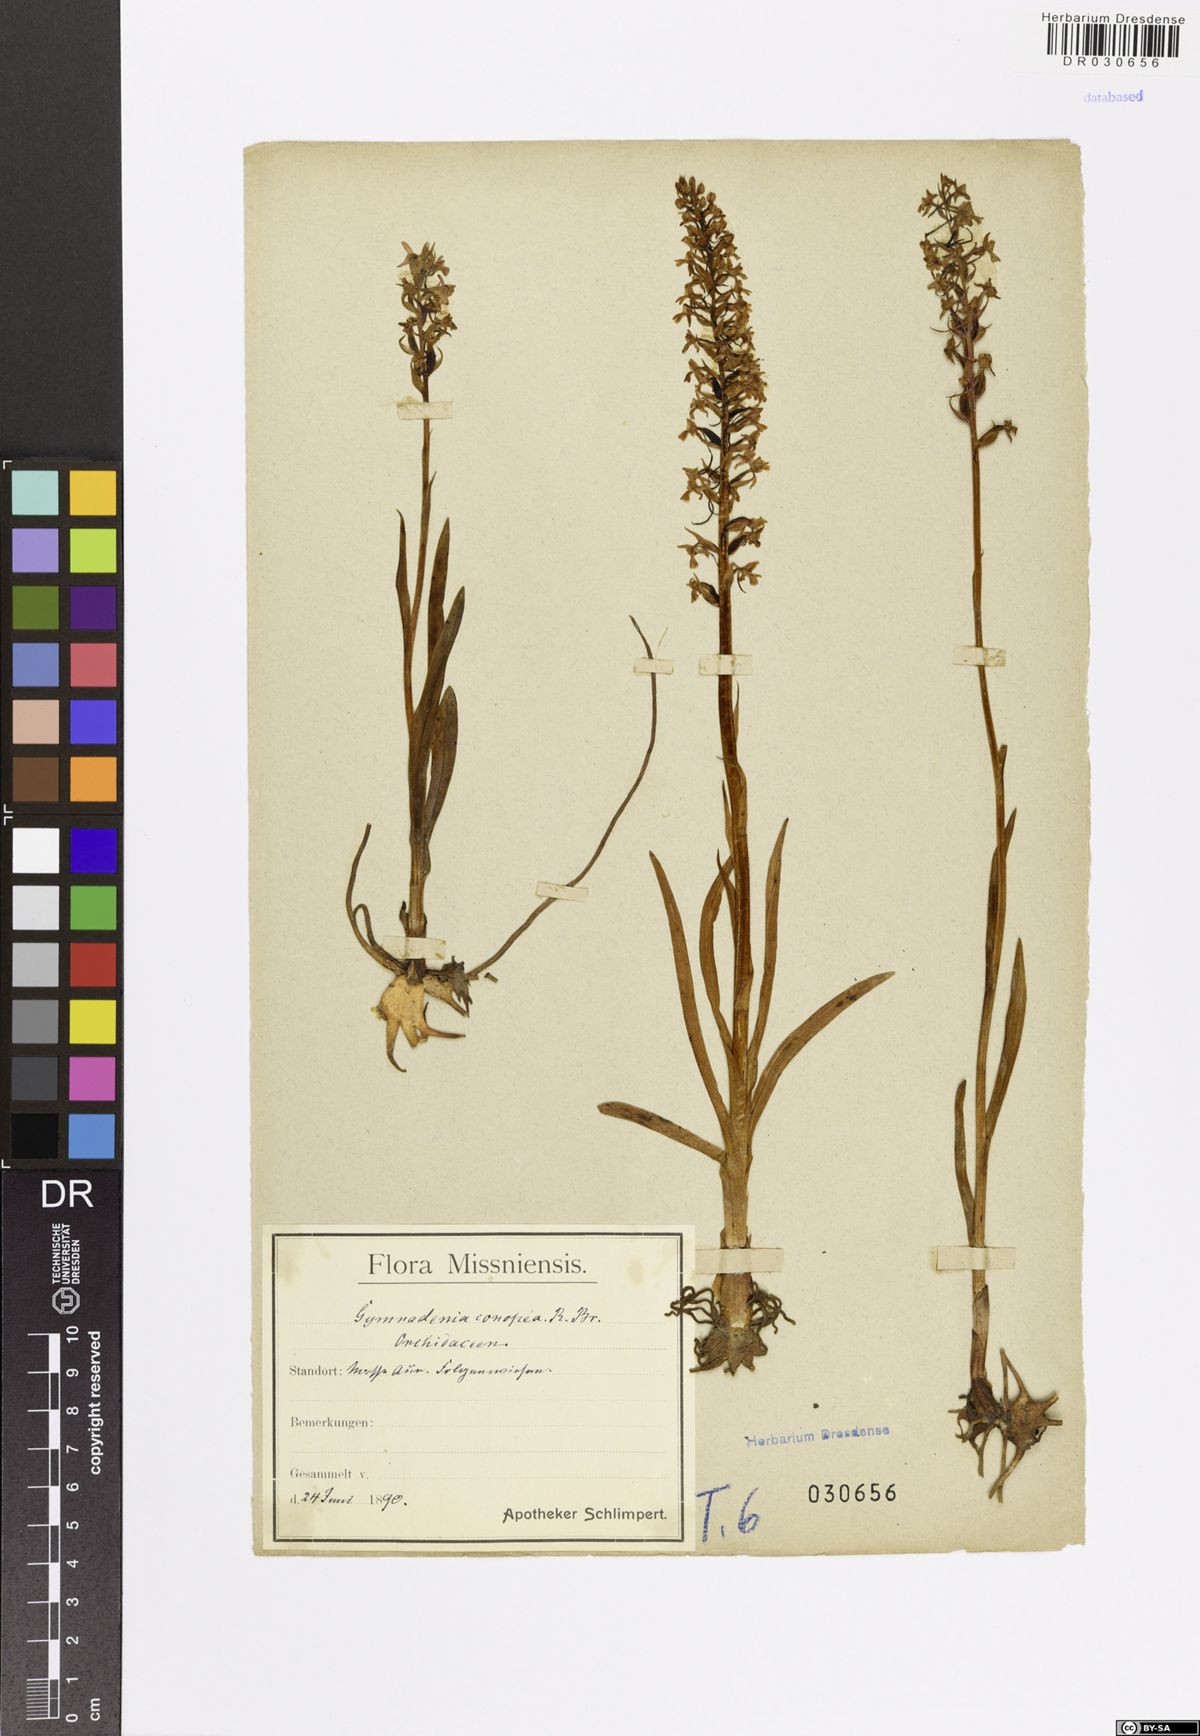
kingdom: Plantae
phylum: Tracheophyta
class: Liliopsida
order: Asparagales
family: Orchidaceae
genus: Gymnadenia
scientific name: Gymnadenia conopsea
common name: Fragrant orchid
